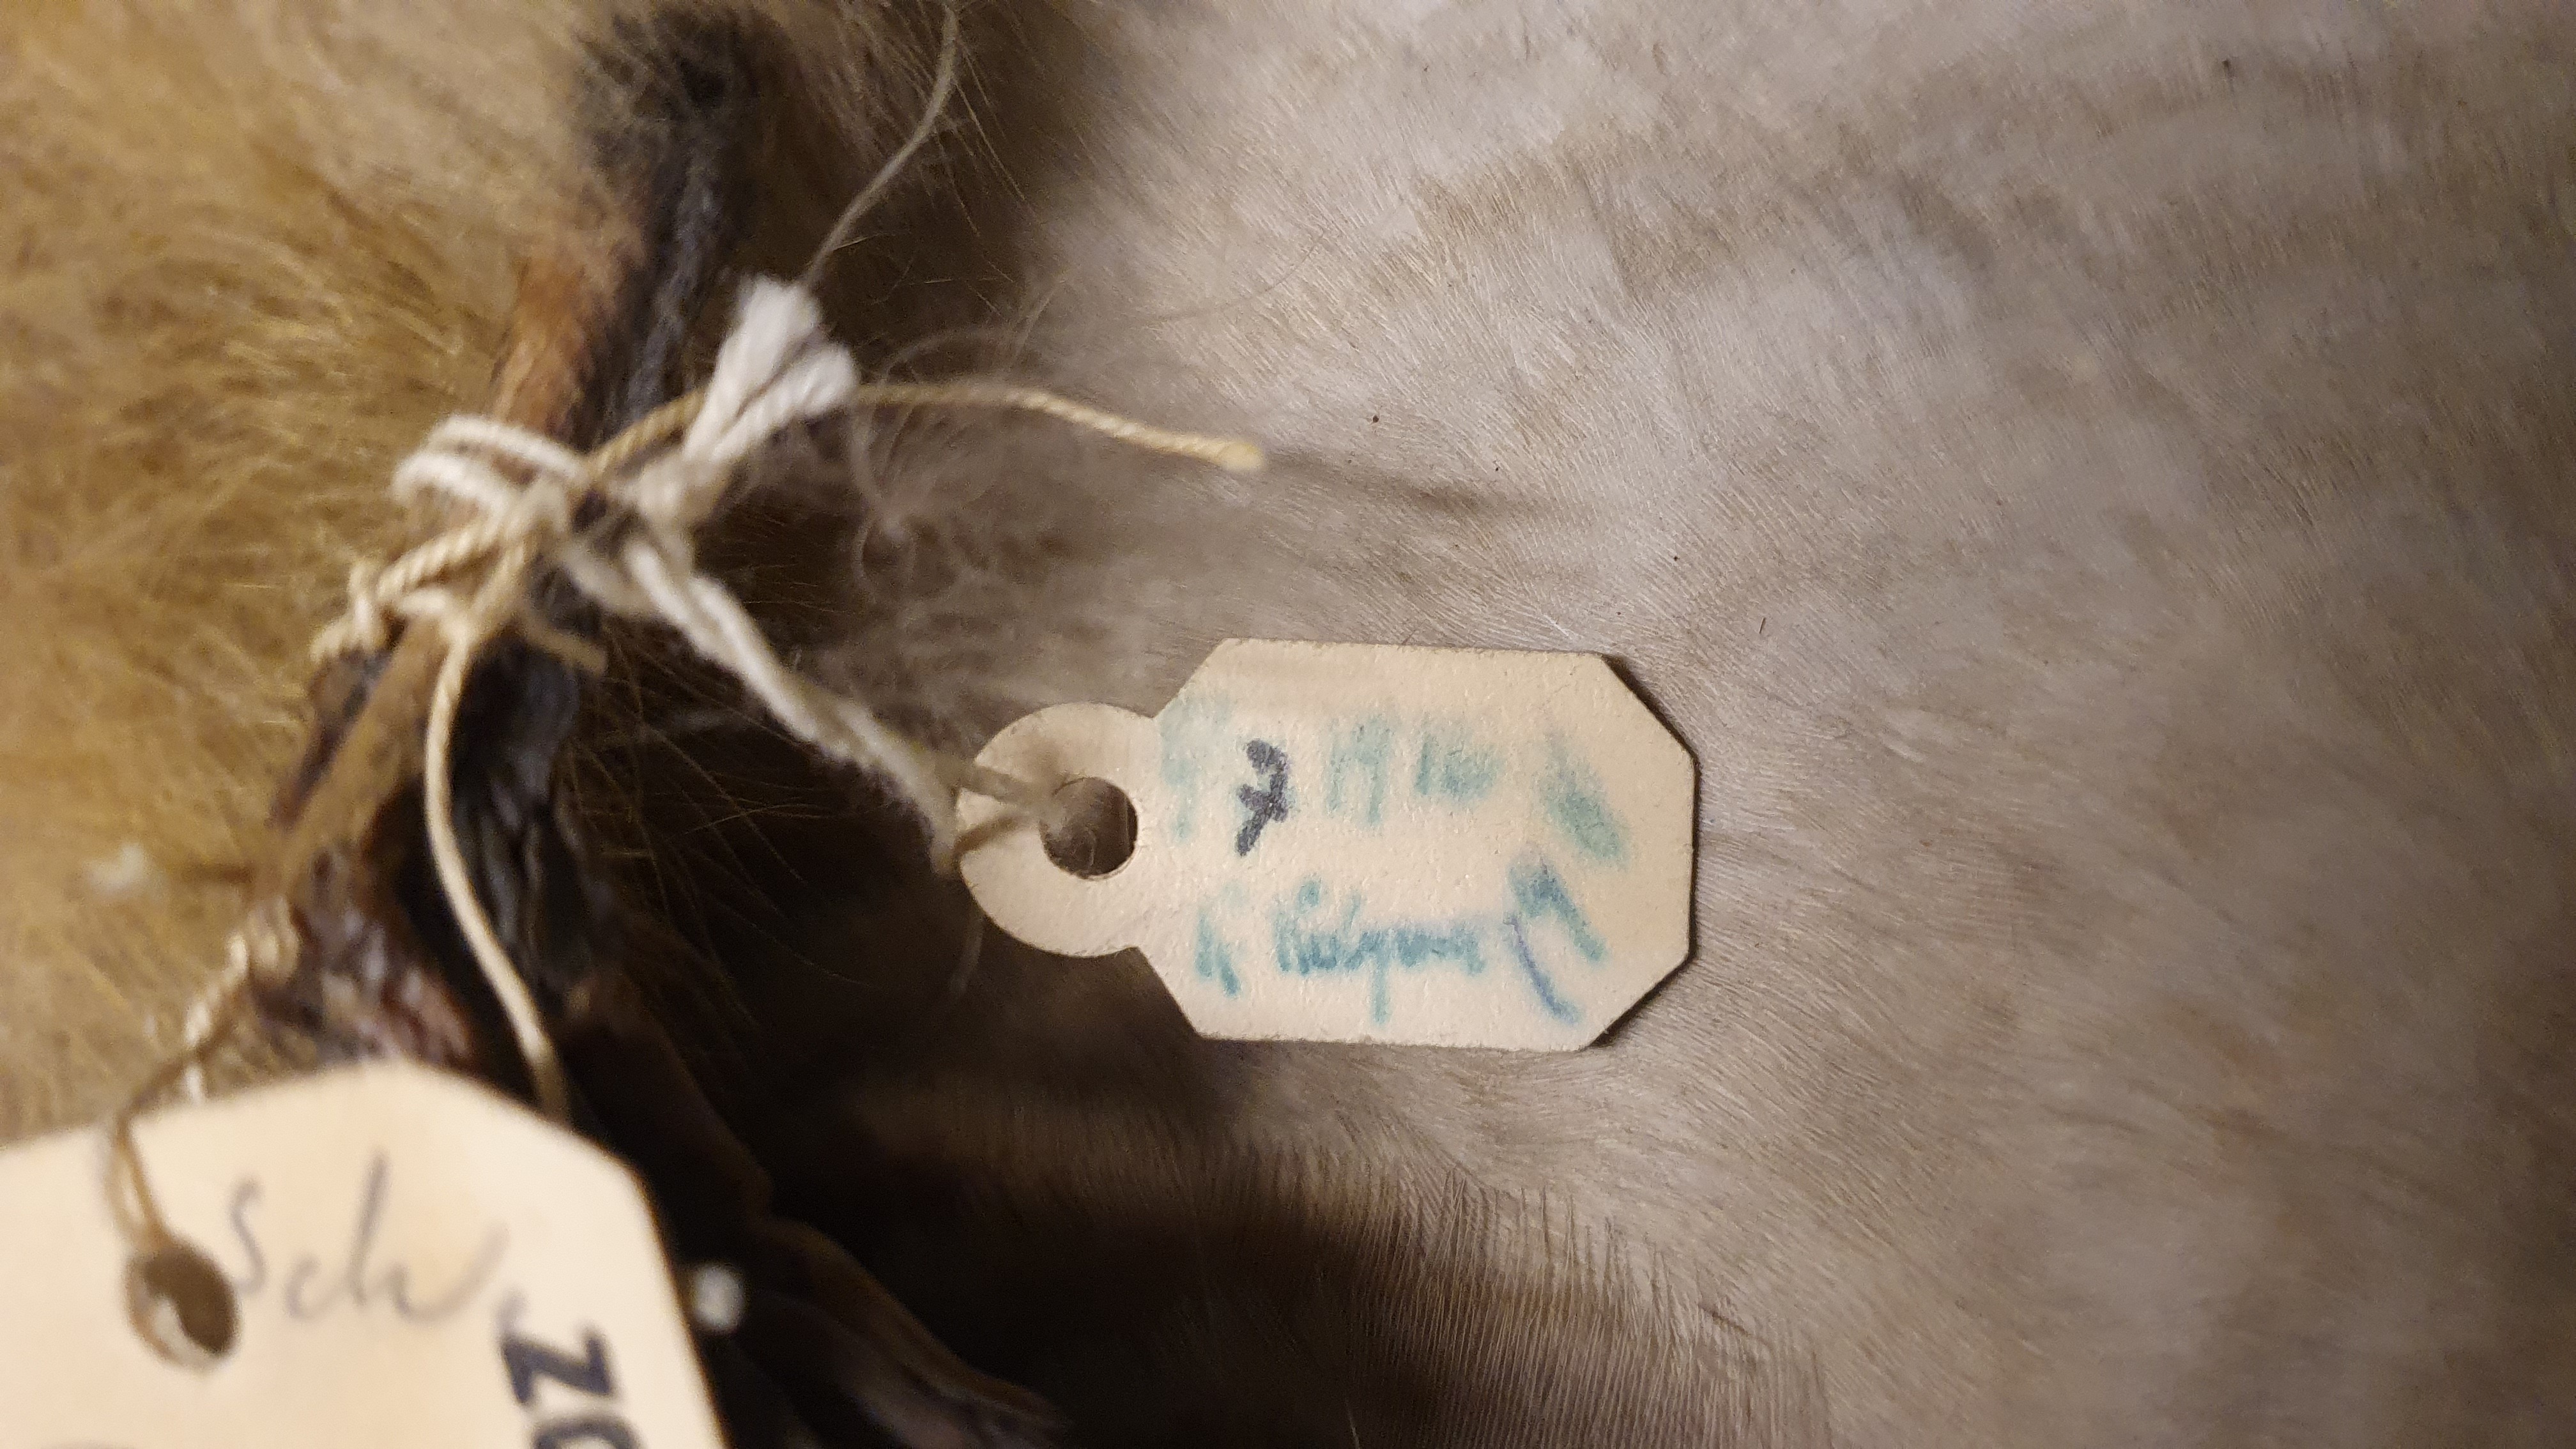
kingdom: Animalia
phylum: Chordata
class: Aves
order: Anseriformes
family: Anatidae
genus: Anser
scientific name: Anser serrirostris
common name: Tundra bean goose
